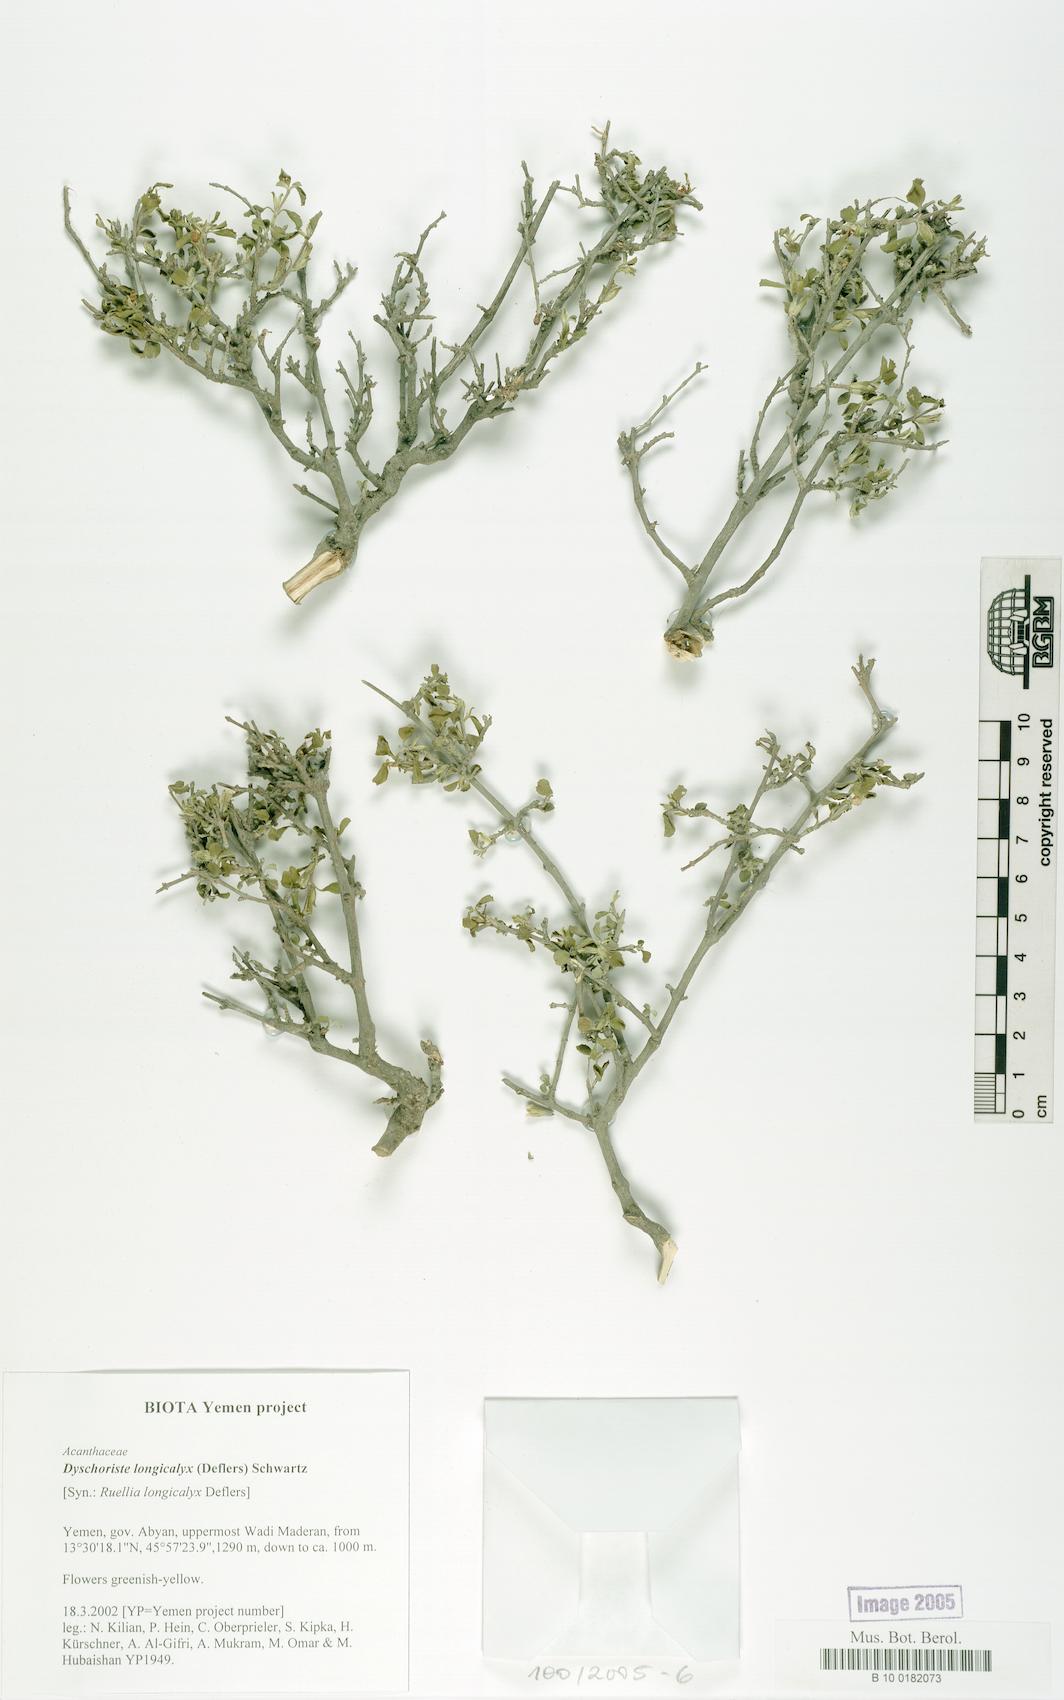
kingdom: Plantae
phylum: Tracheophyta
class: Magnoliopsida
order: Lamiales
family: Acanthaceae
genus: Duosperma
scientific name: Duosperma longicalyx
